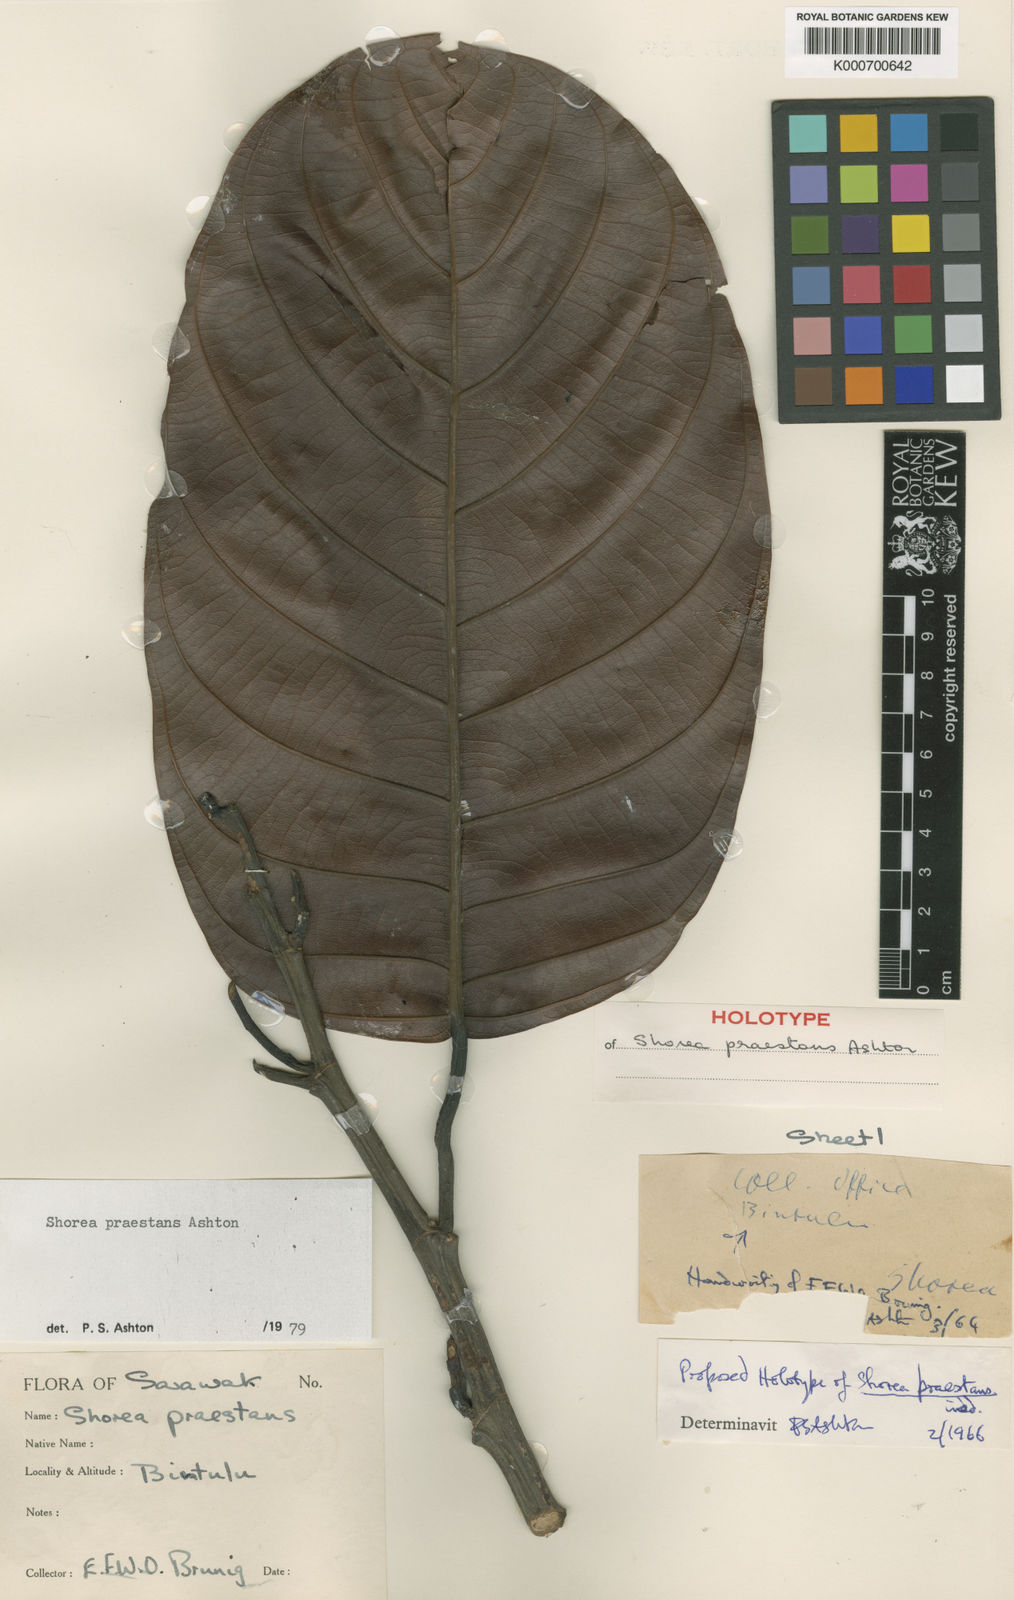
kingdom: Plantae
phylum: Tracheophyta
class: Magnoliopsida
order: Malvales
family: Dipterocarpaceae
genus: Shorea
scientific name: Shorea praestans
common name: Light red meranti
